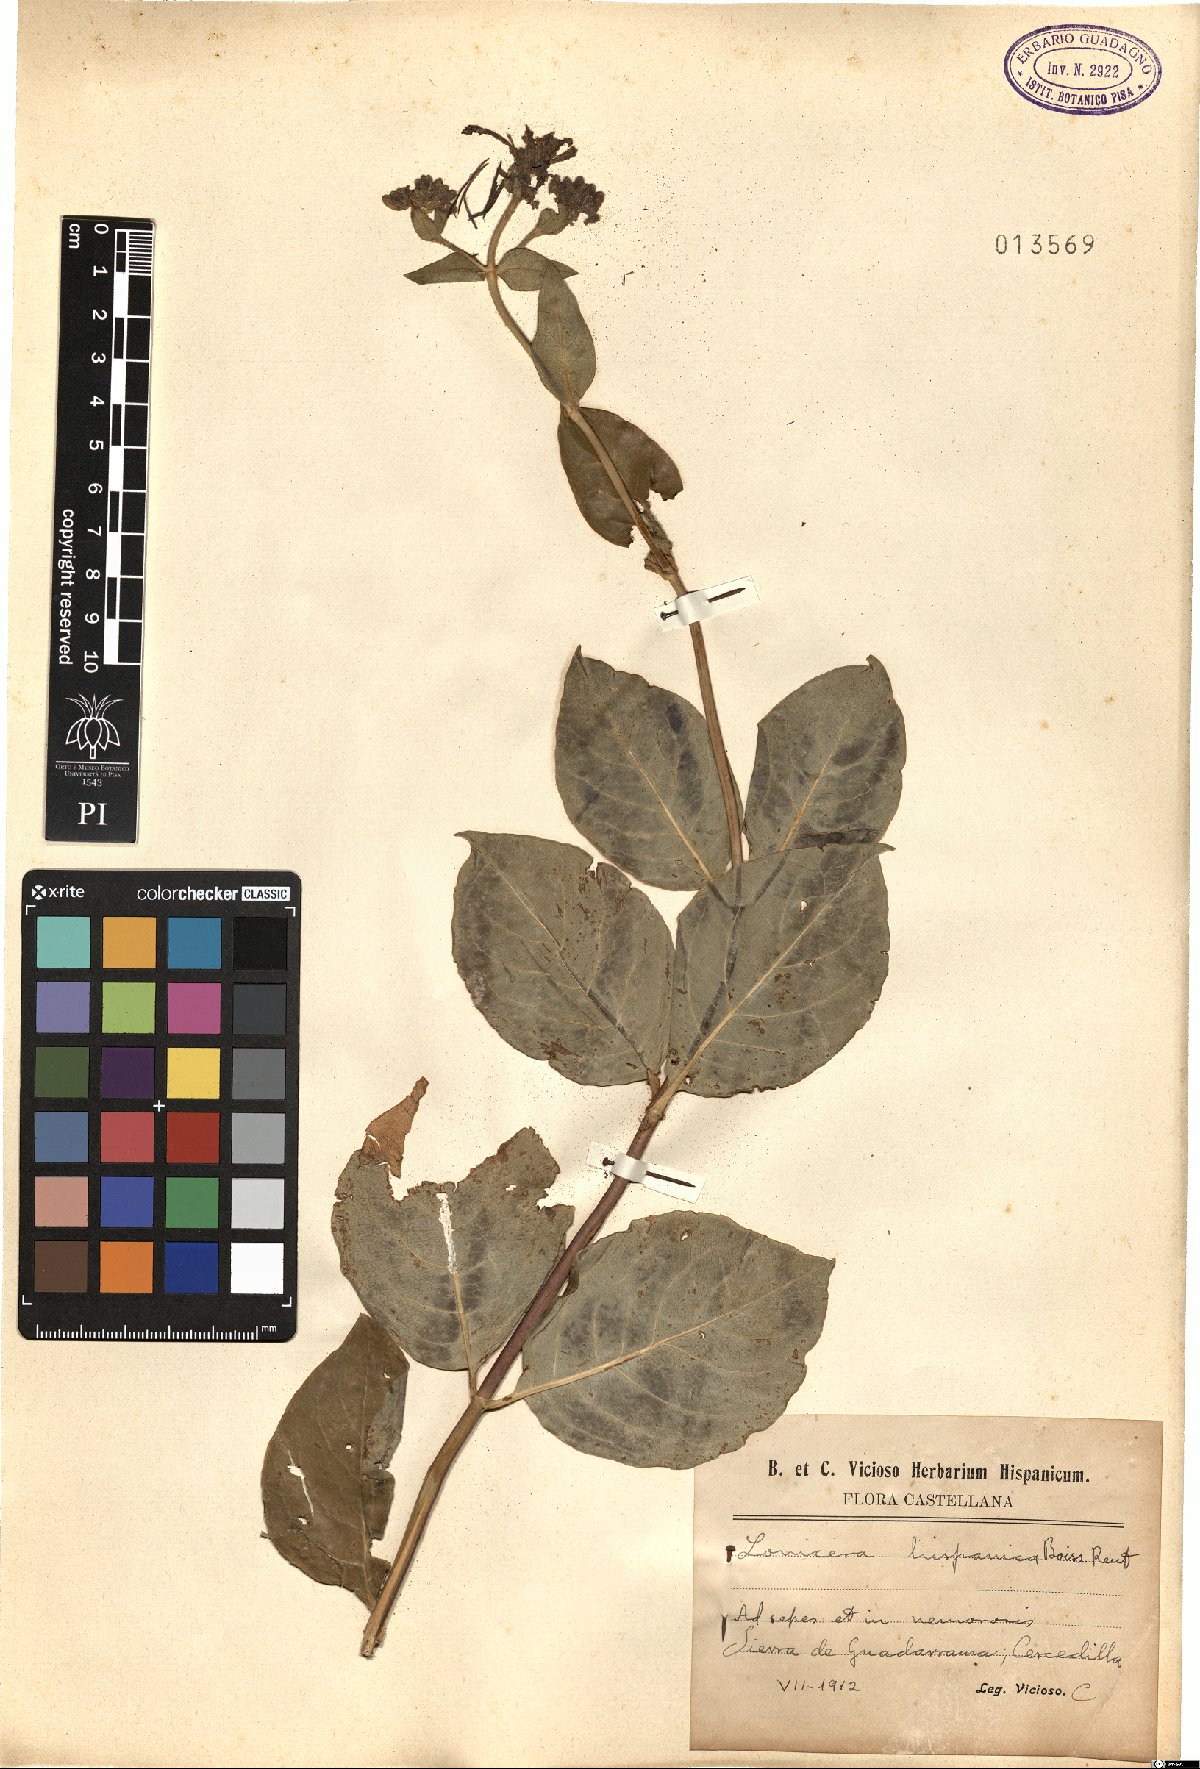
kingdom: Plantae
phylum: Tracheophyta
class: Magnoliopsida
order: Dipsacales
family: Caprifoliaceae
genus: Lonicera
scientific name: Lonicera periclymenum
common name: European honeysuckle
